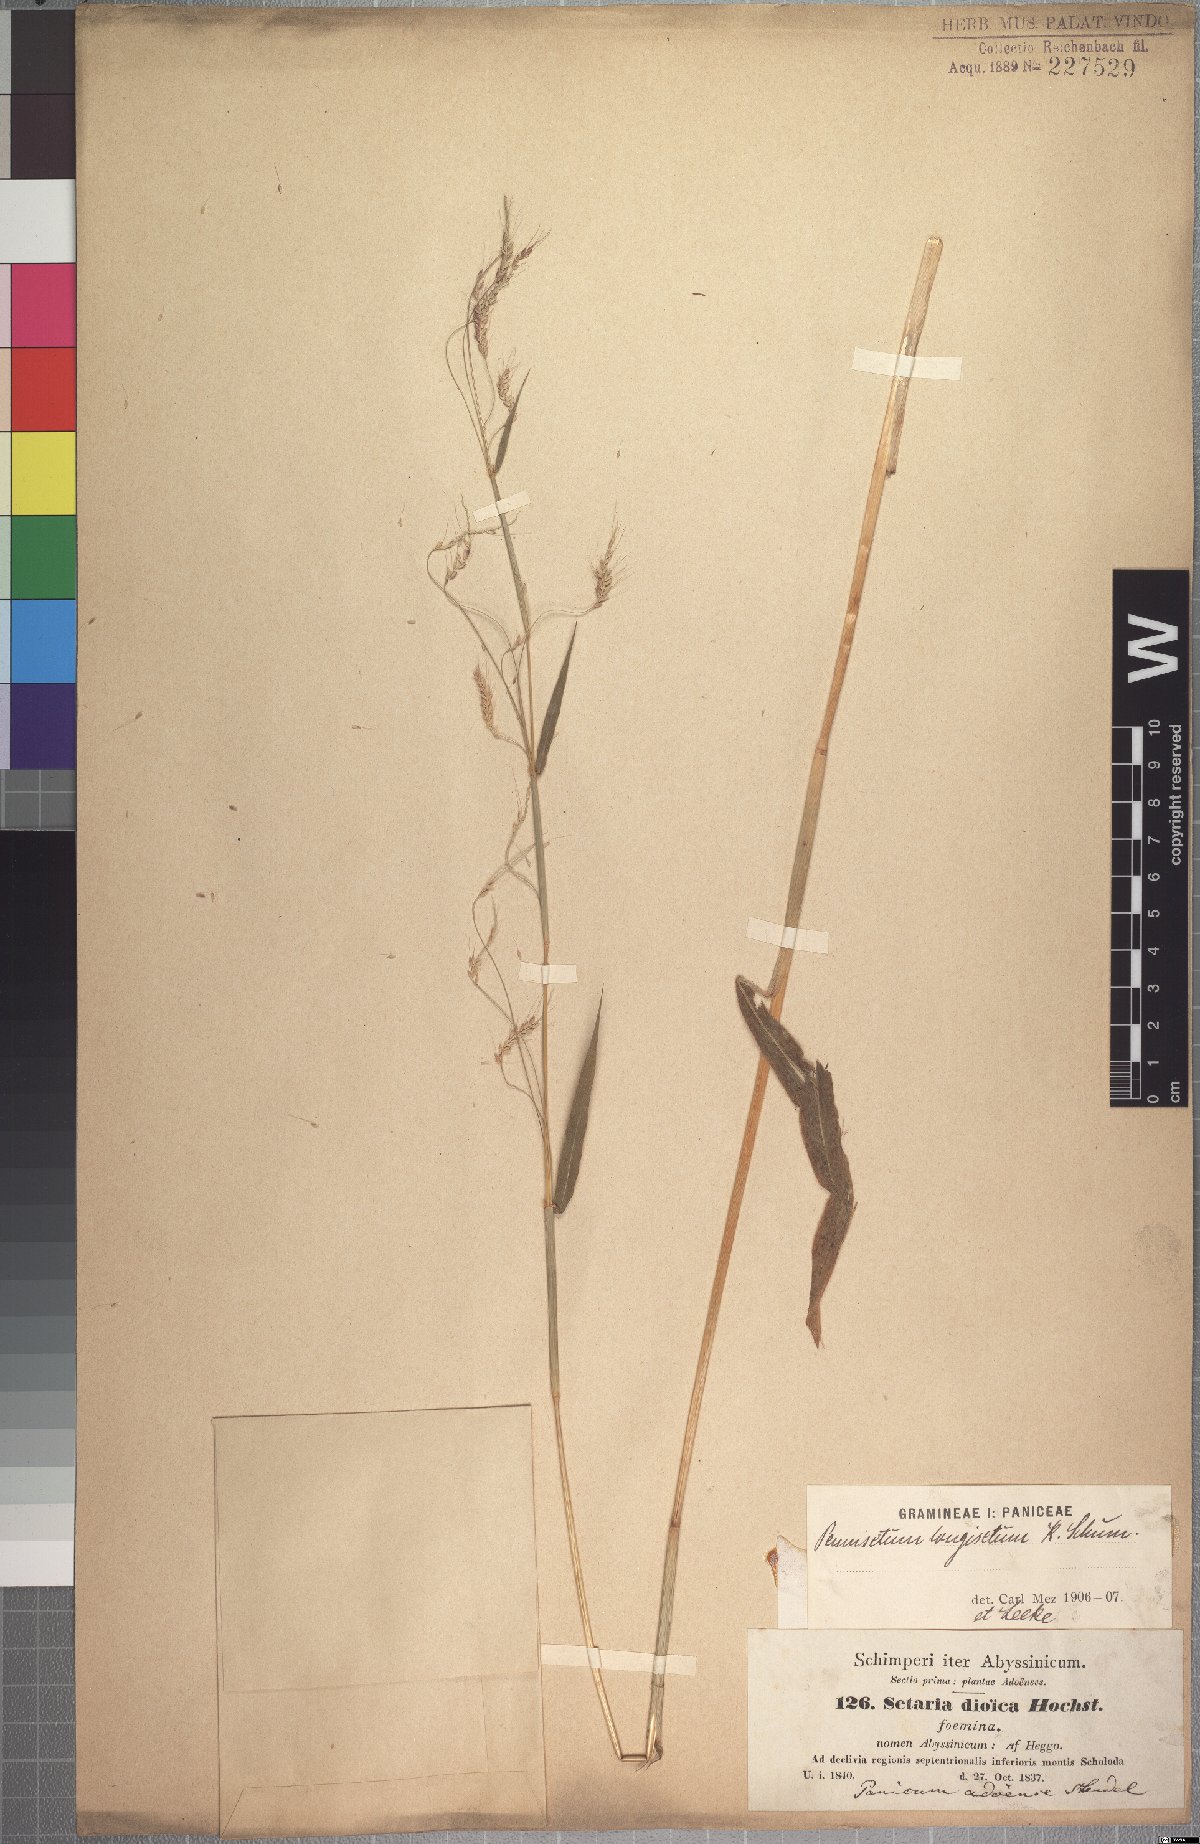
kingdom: Plantae
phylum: Tracheophyta
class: Liliopsida
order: Poales
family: Poaceae
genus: Cenchrus
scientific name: Cenchrus petiolaris
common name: Grass
